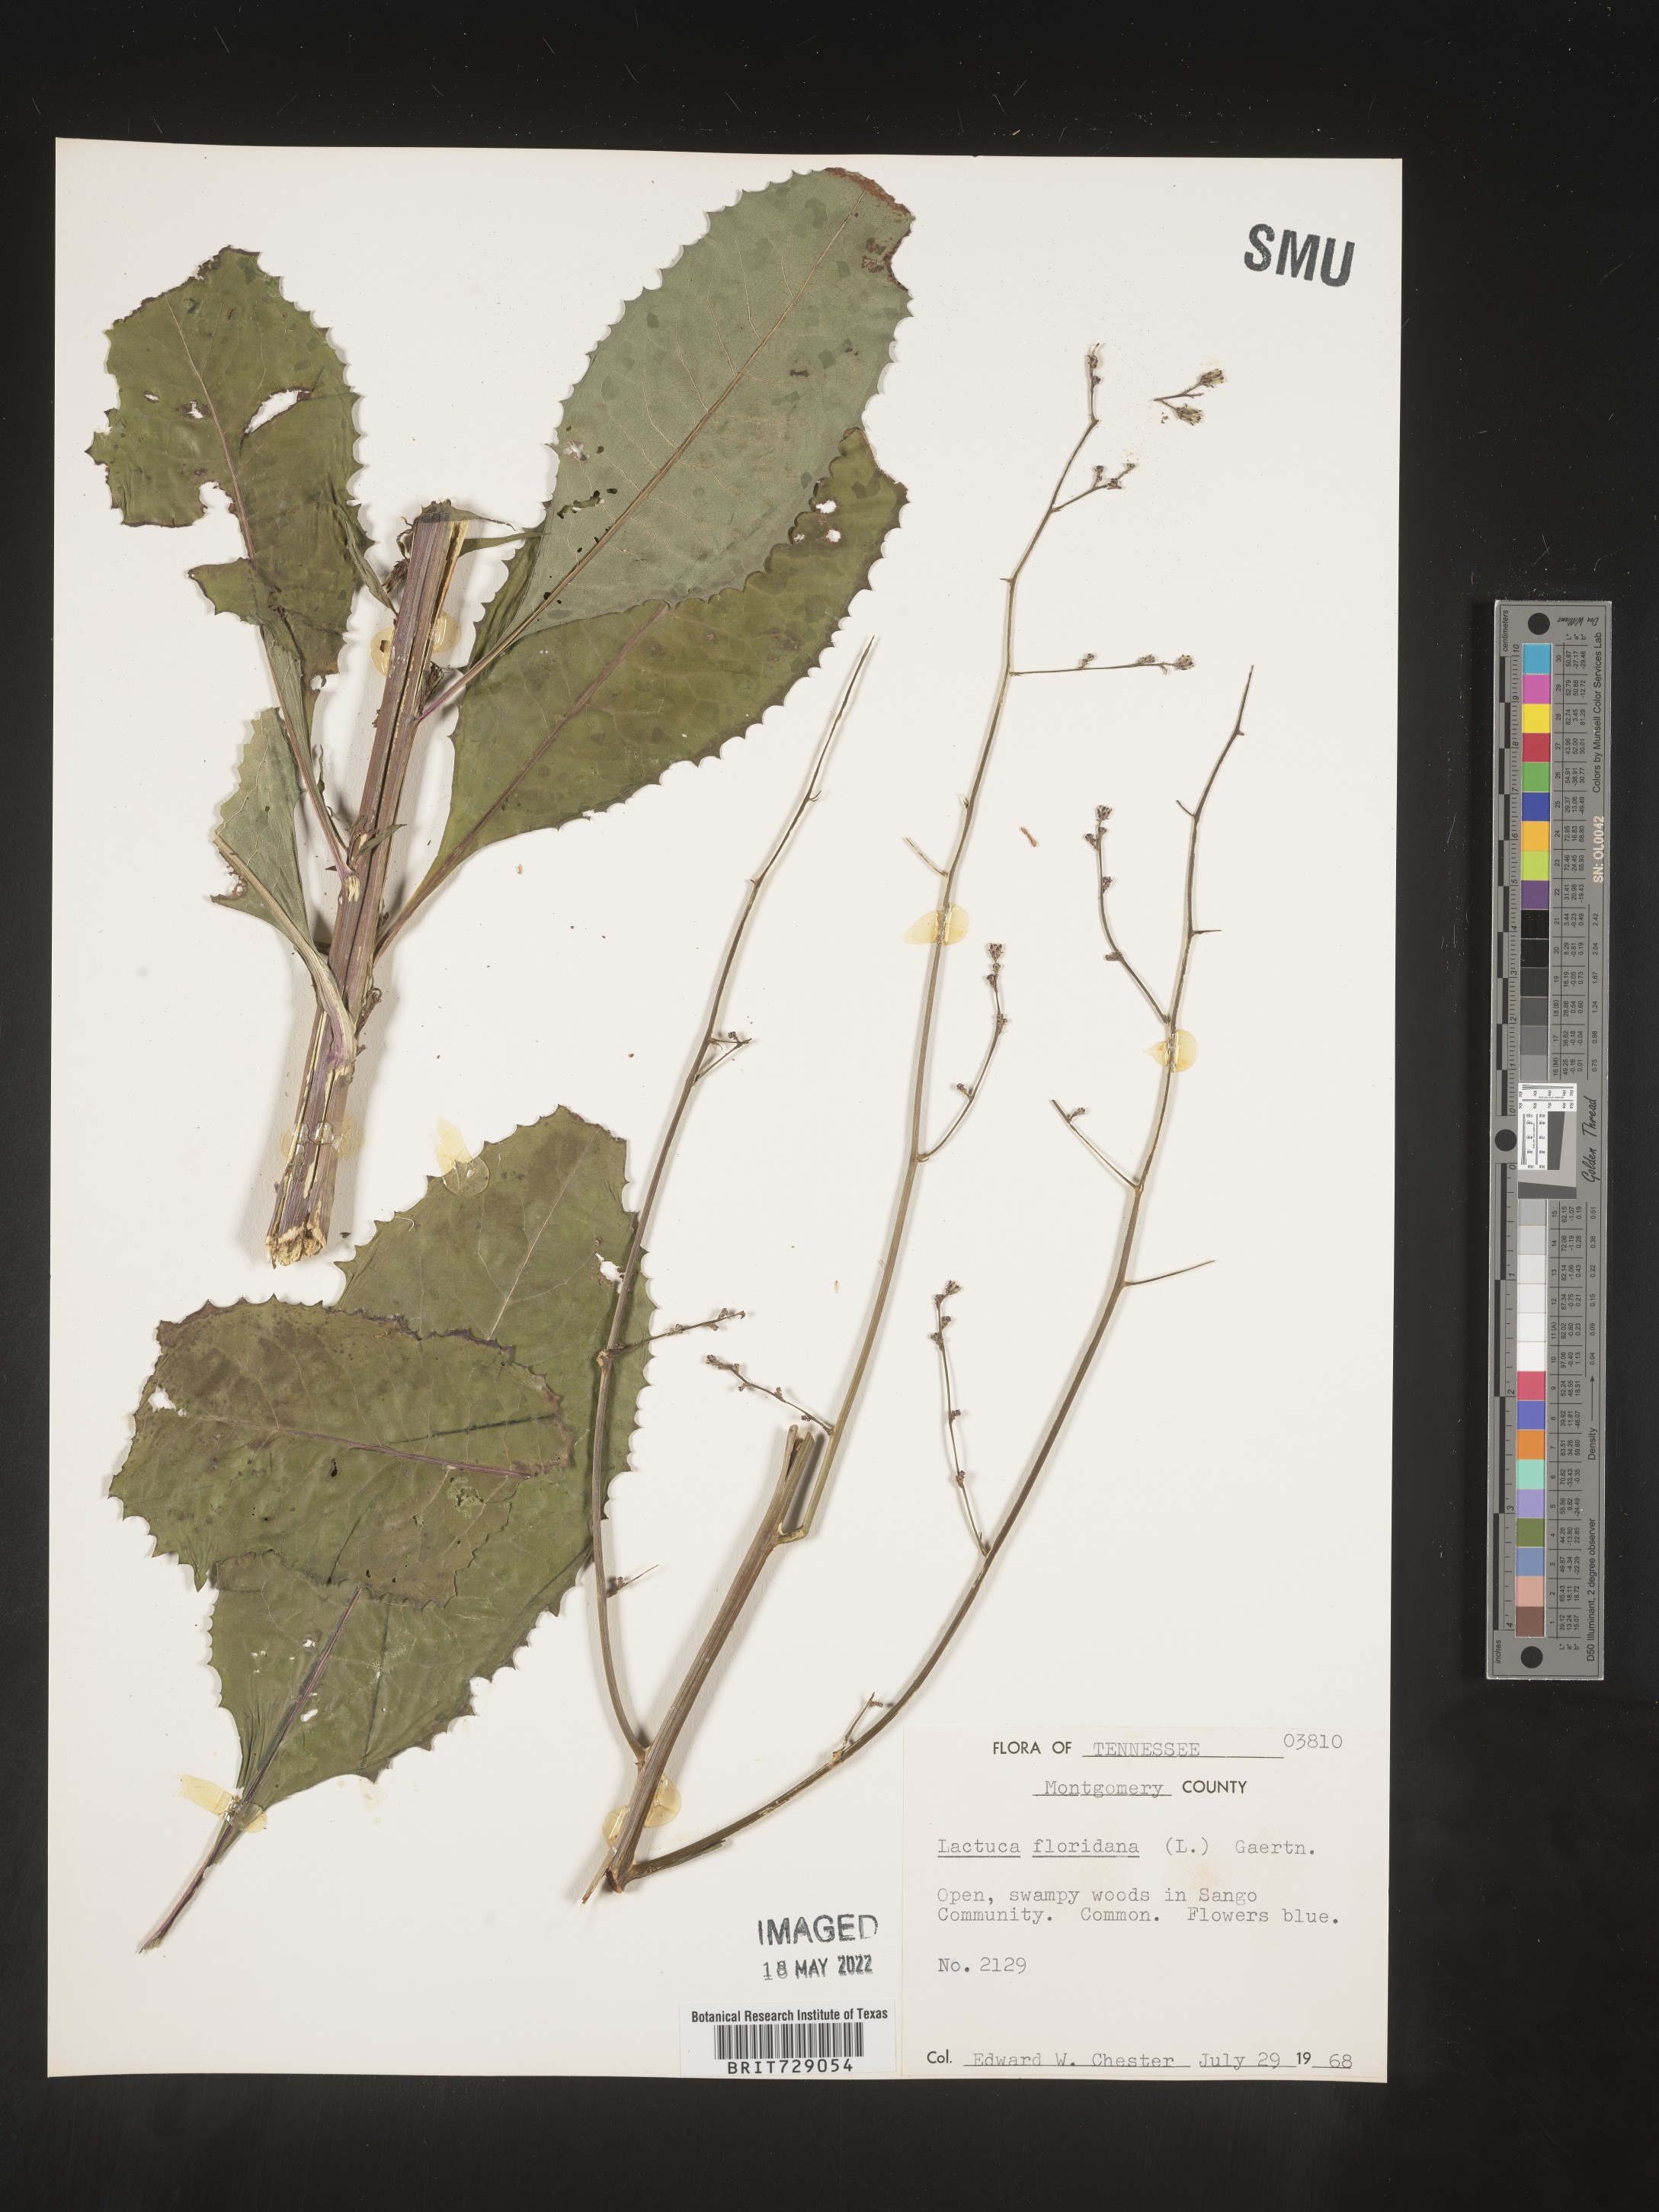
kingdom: Plantae
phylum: Tracheophyta
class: Magnoliopsida
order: Asterales
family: Asteraceae
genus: Lactuca
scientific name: Lactuca floridana
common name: Woodland lettuce
